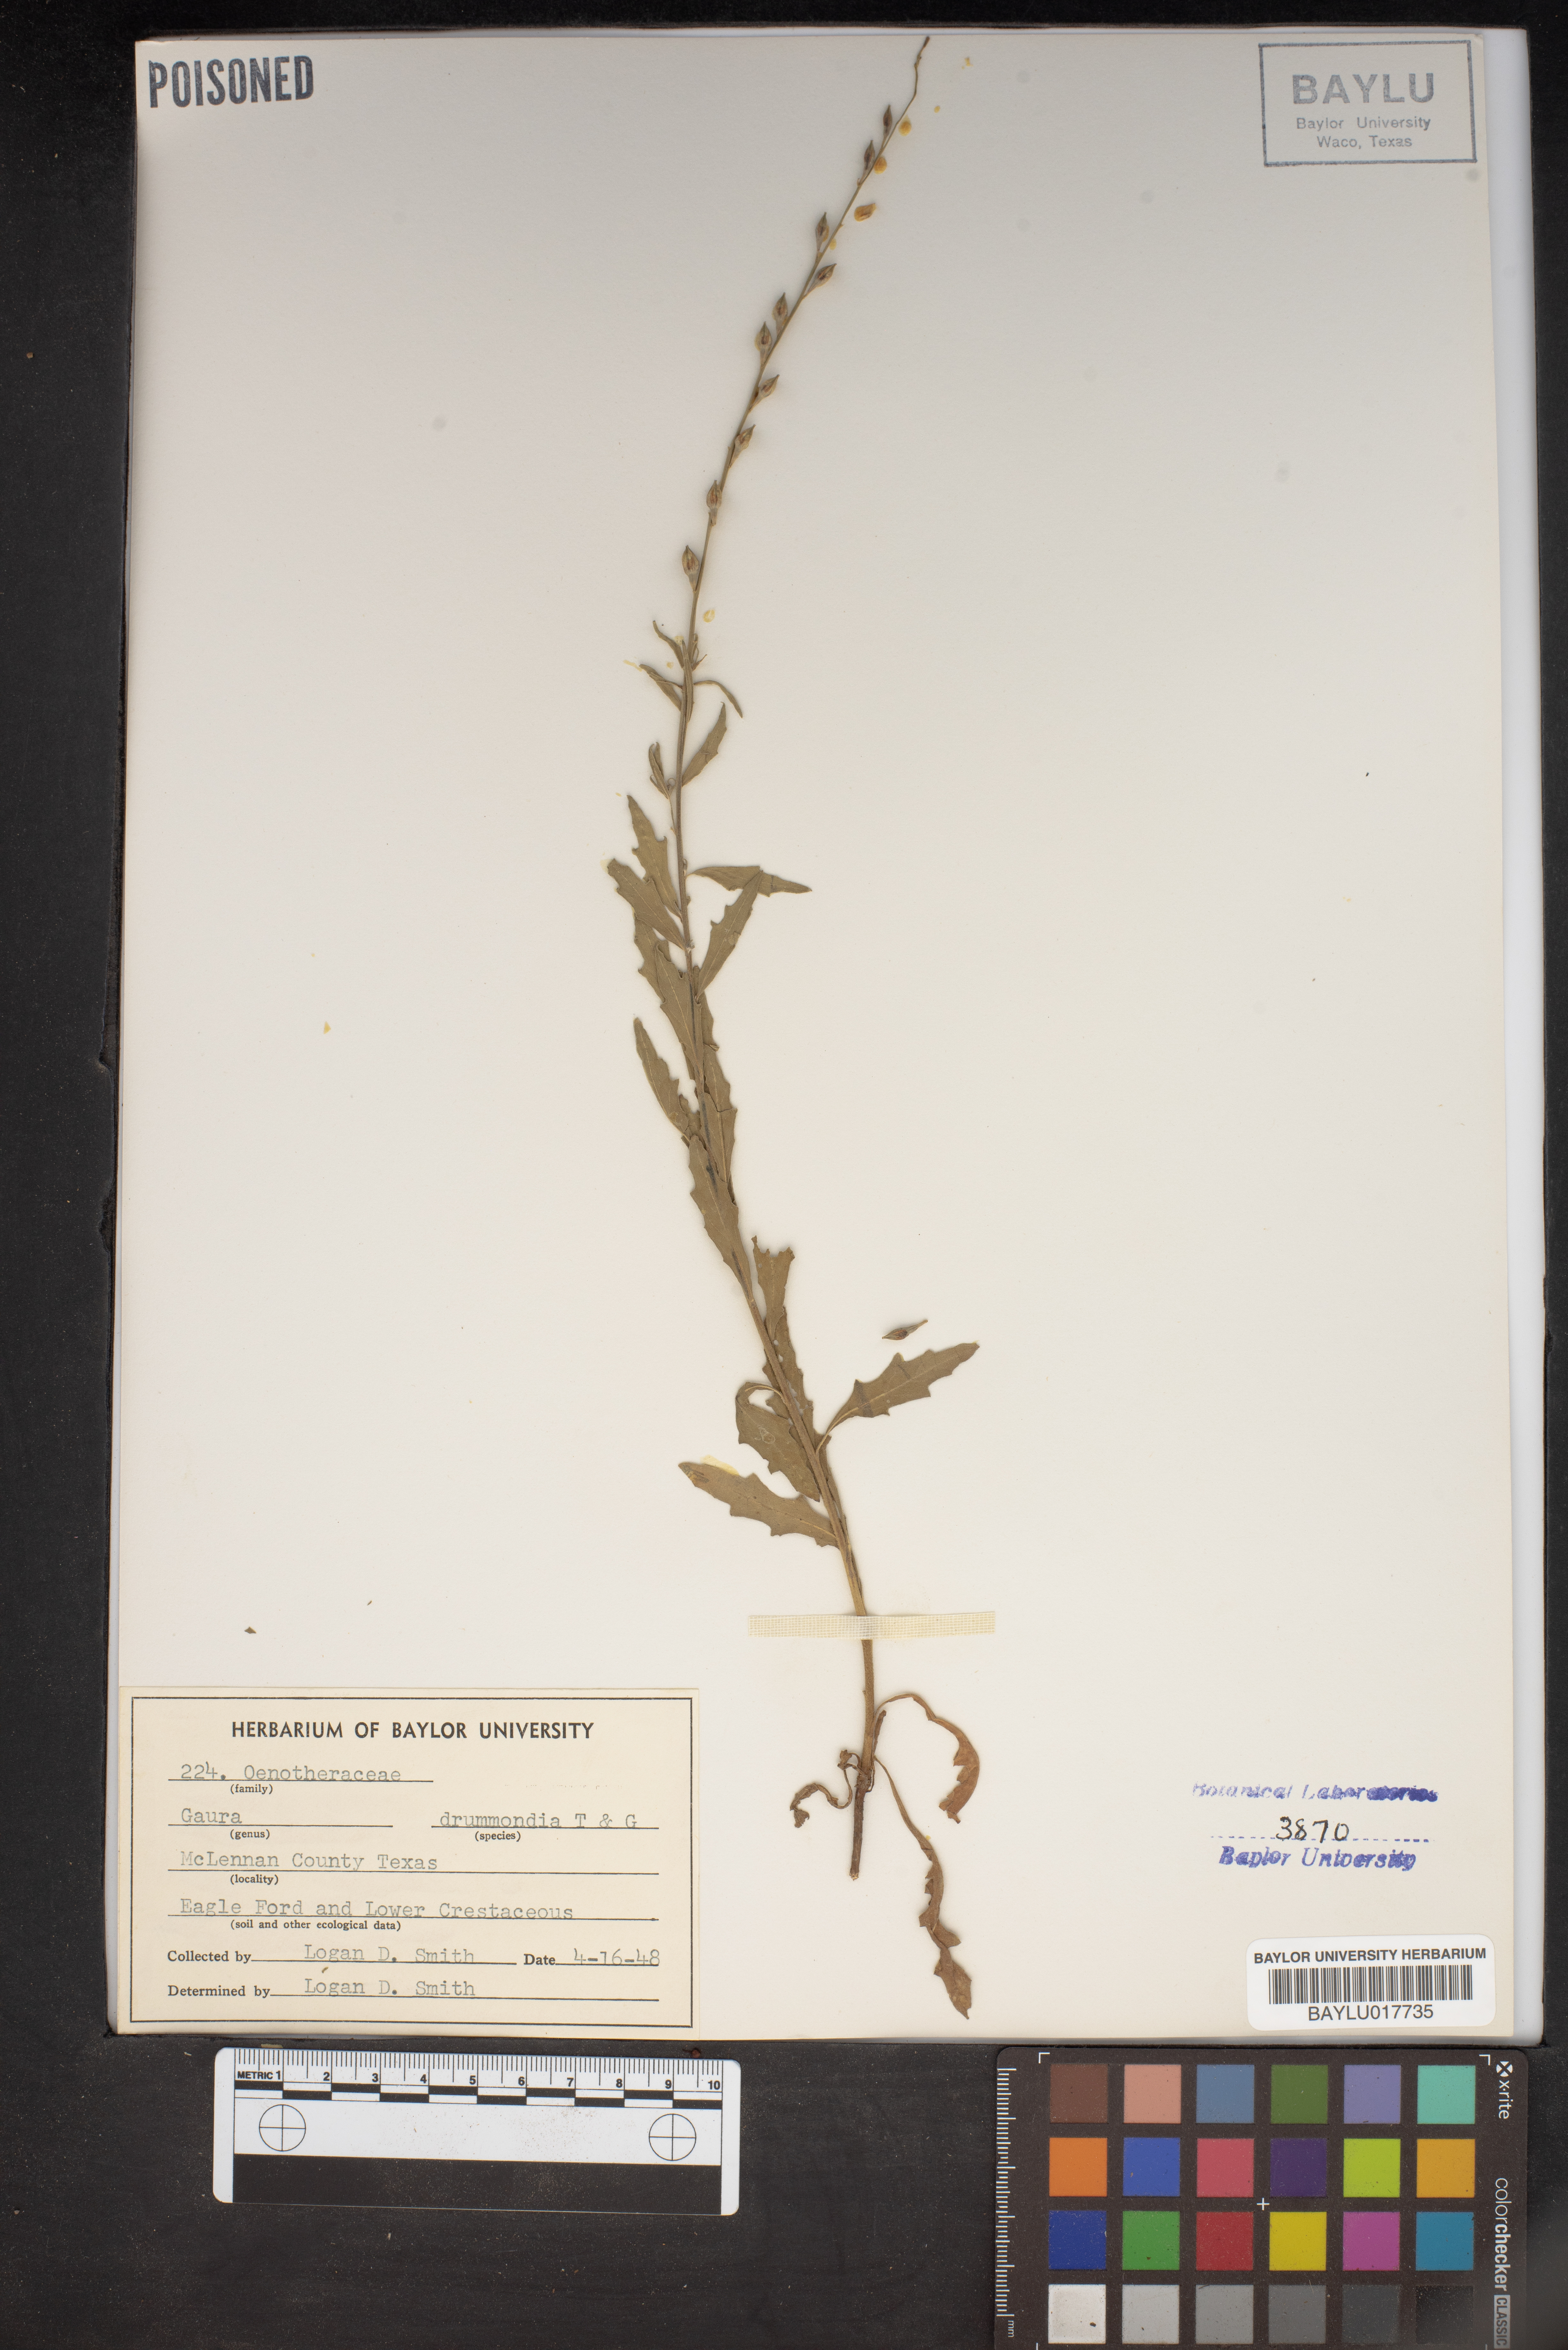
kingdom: Plantae
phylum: Tracheophyta
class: Magnoliopsida
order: Myrtales
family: Onagraceae
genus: Oenothera
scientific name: Oenothera hispida
